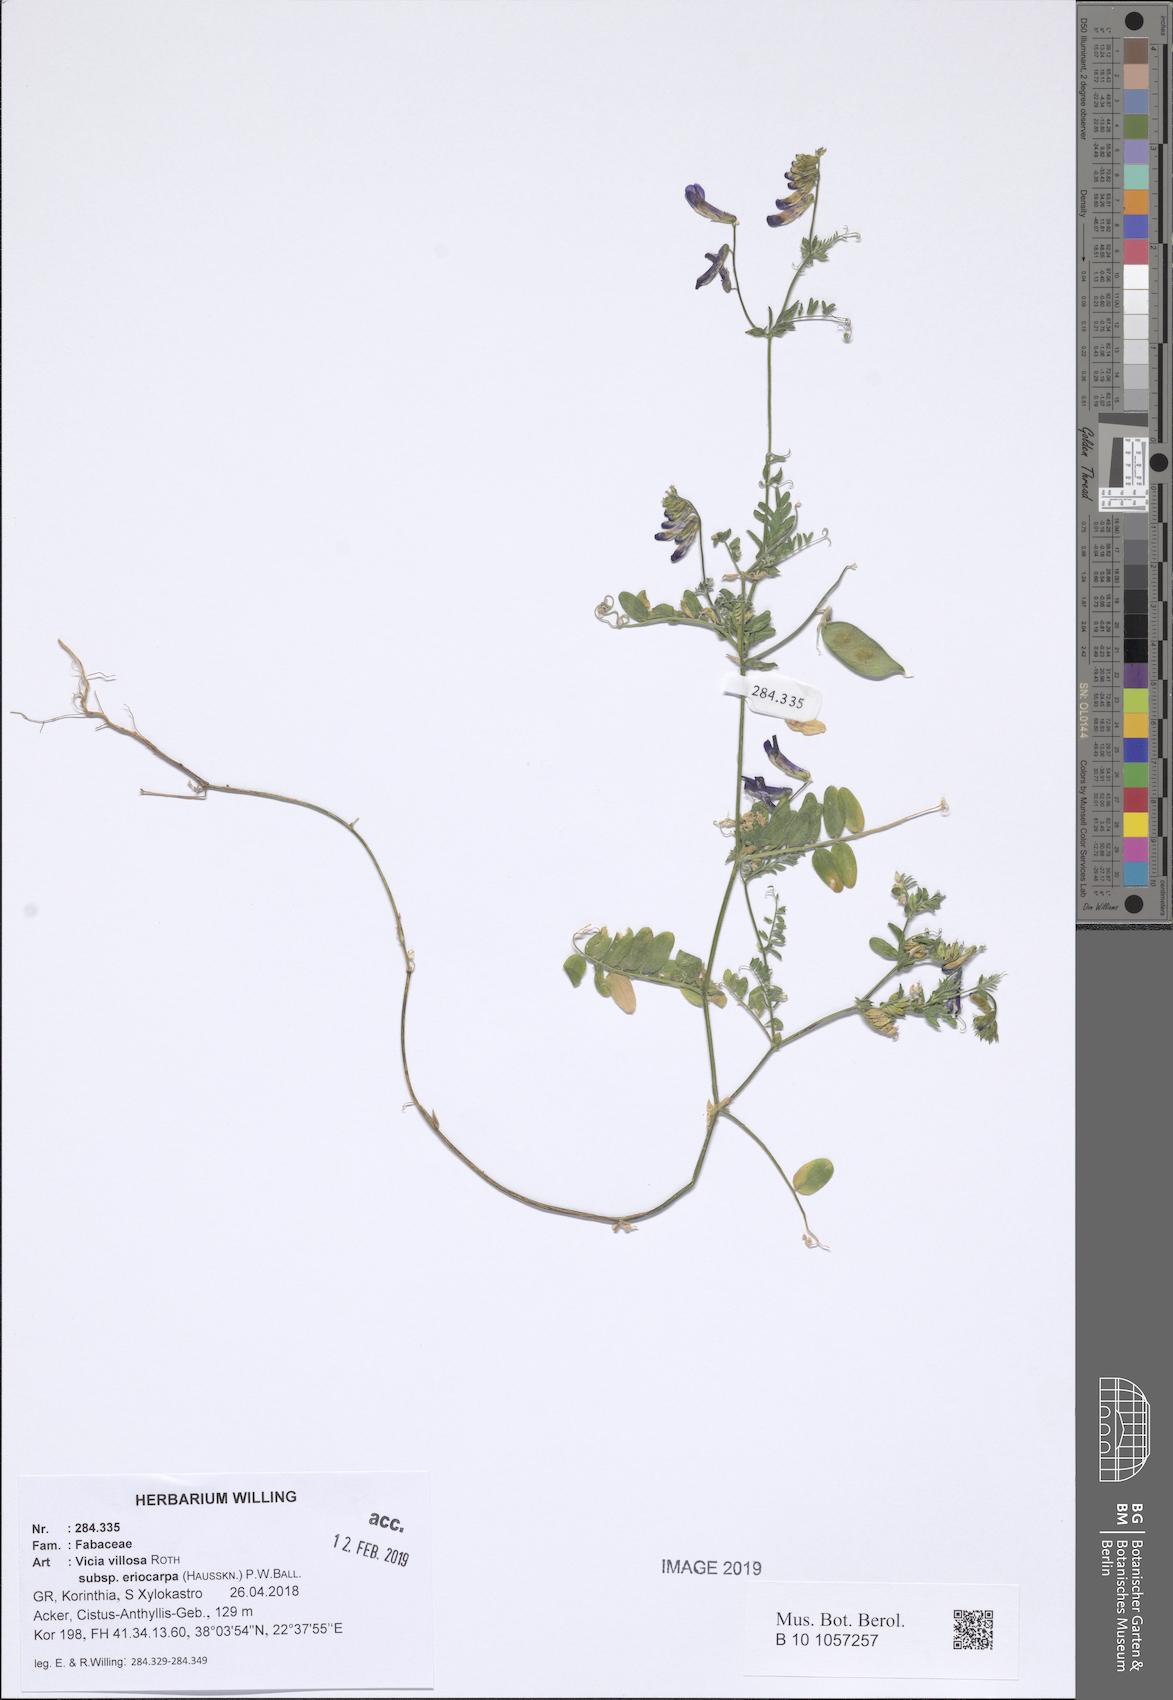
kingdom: Plantae
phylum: Tracheophyta
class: Magnoliopsida
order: Fabales
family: Fabaceae
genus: Vicia
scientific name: Vicia eriocarpa
